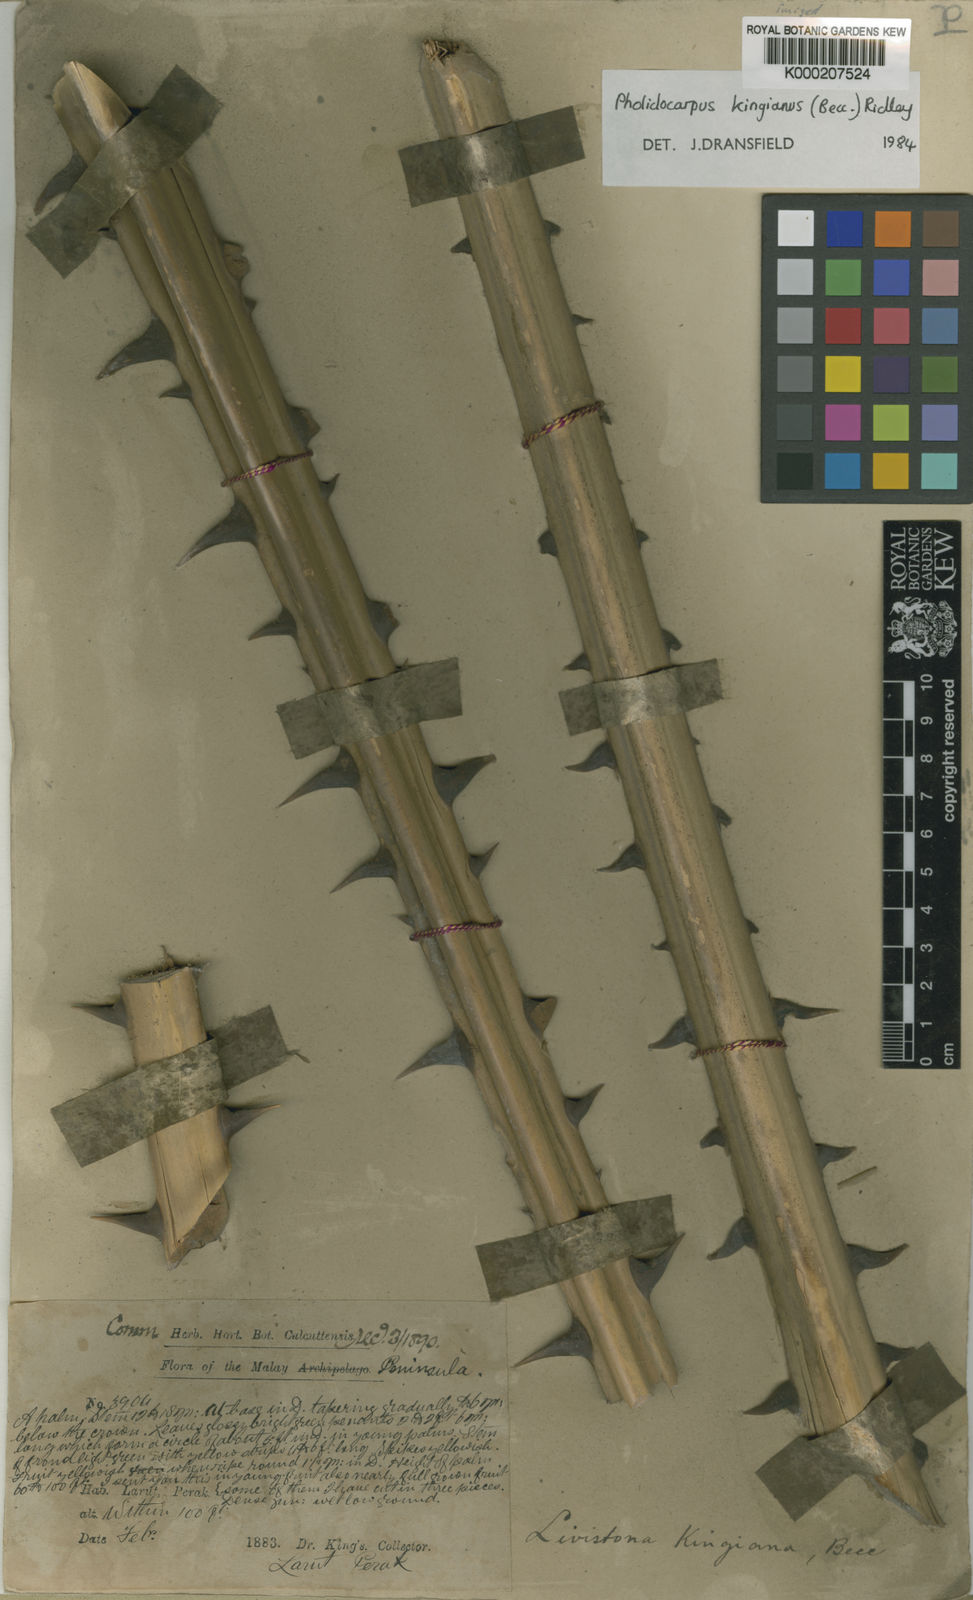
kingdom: Plantae
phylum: Tracheophyta
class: Liliopsida
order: Arecales
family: Arecaceae
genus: Pholidocarpus
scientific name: Pholidocarpus kingianus
